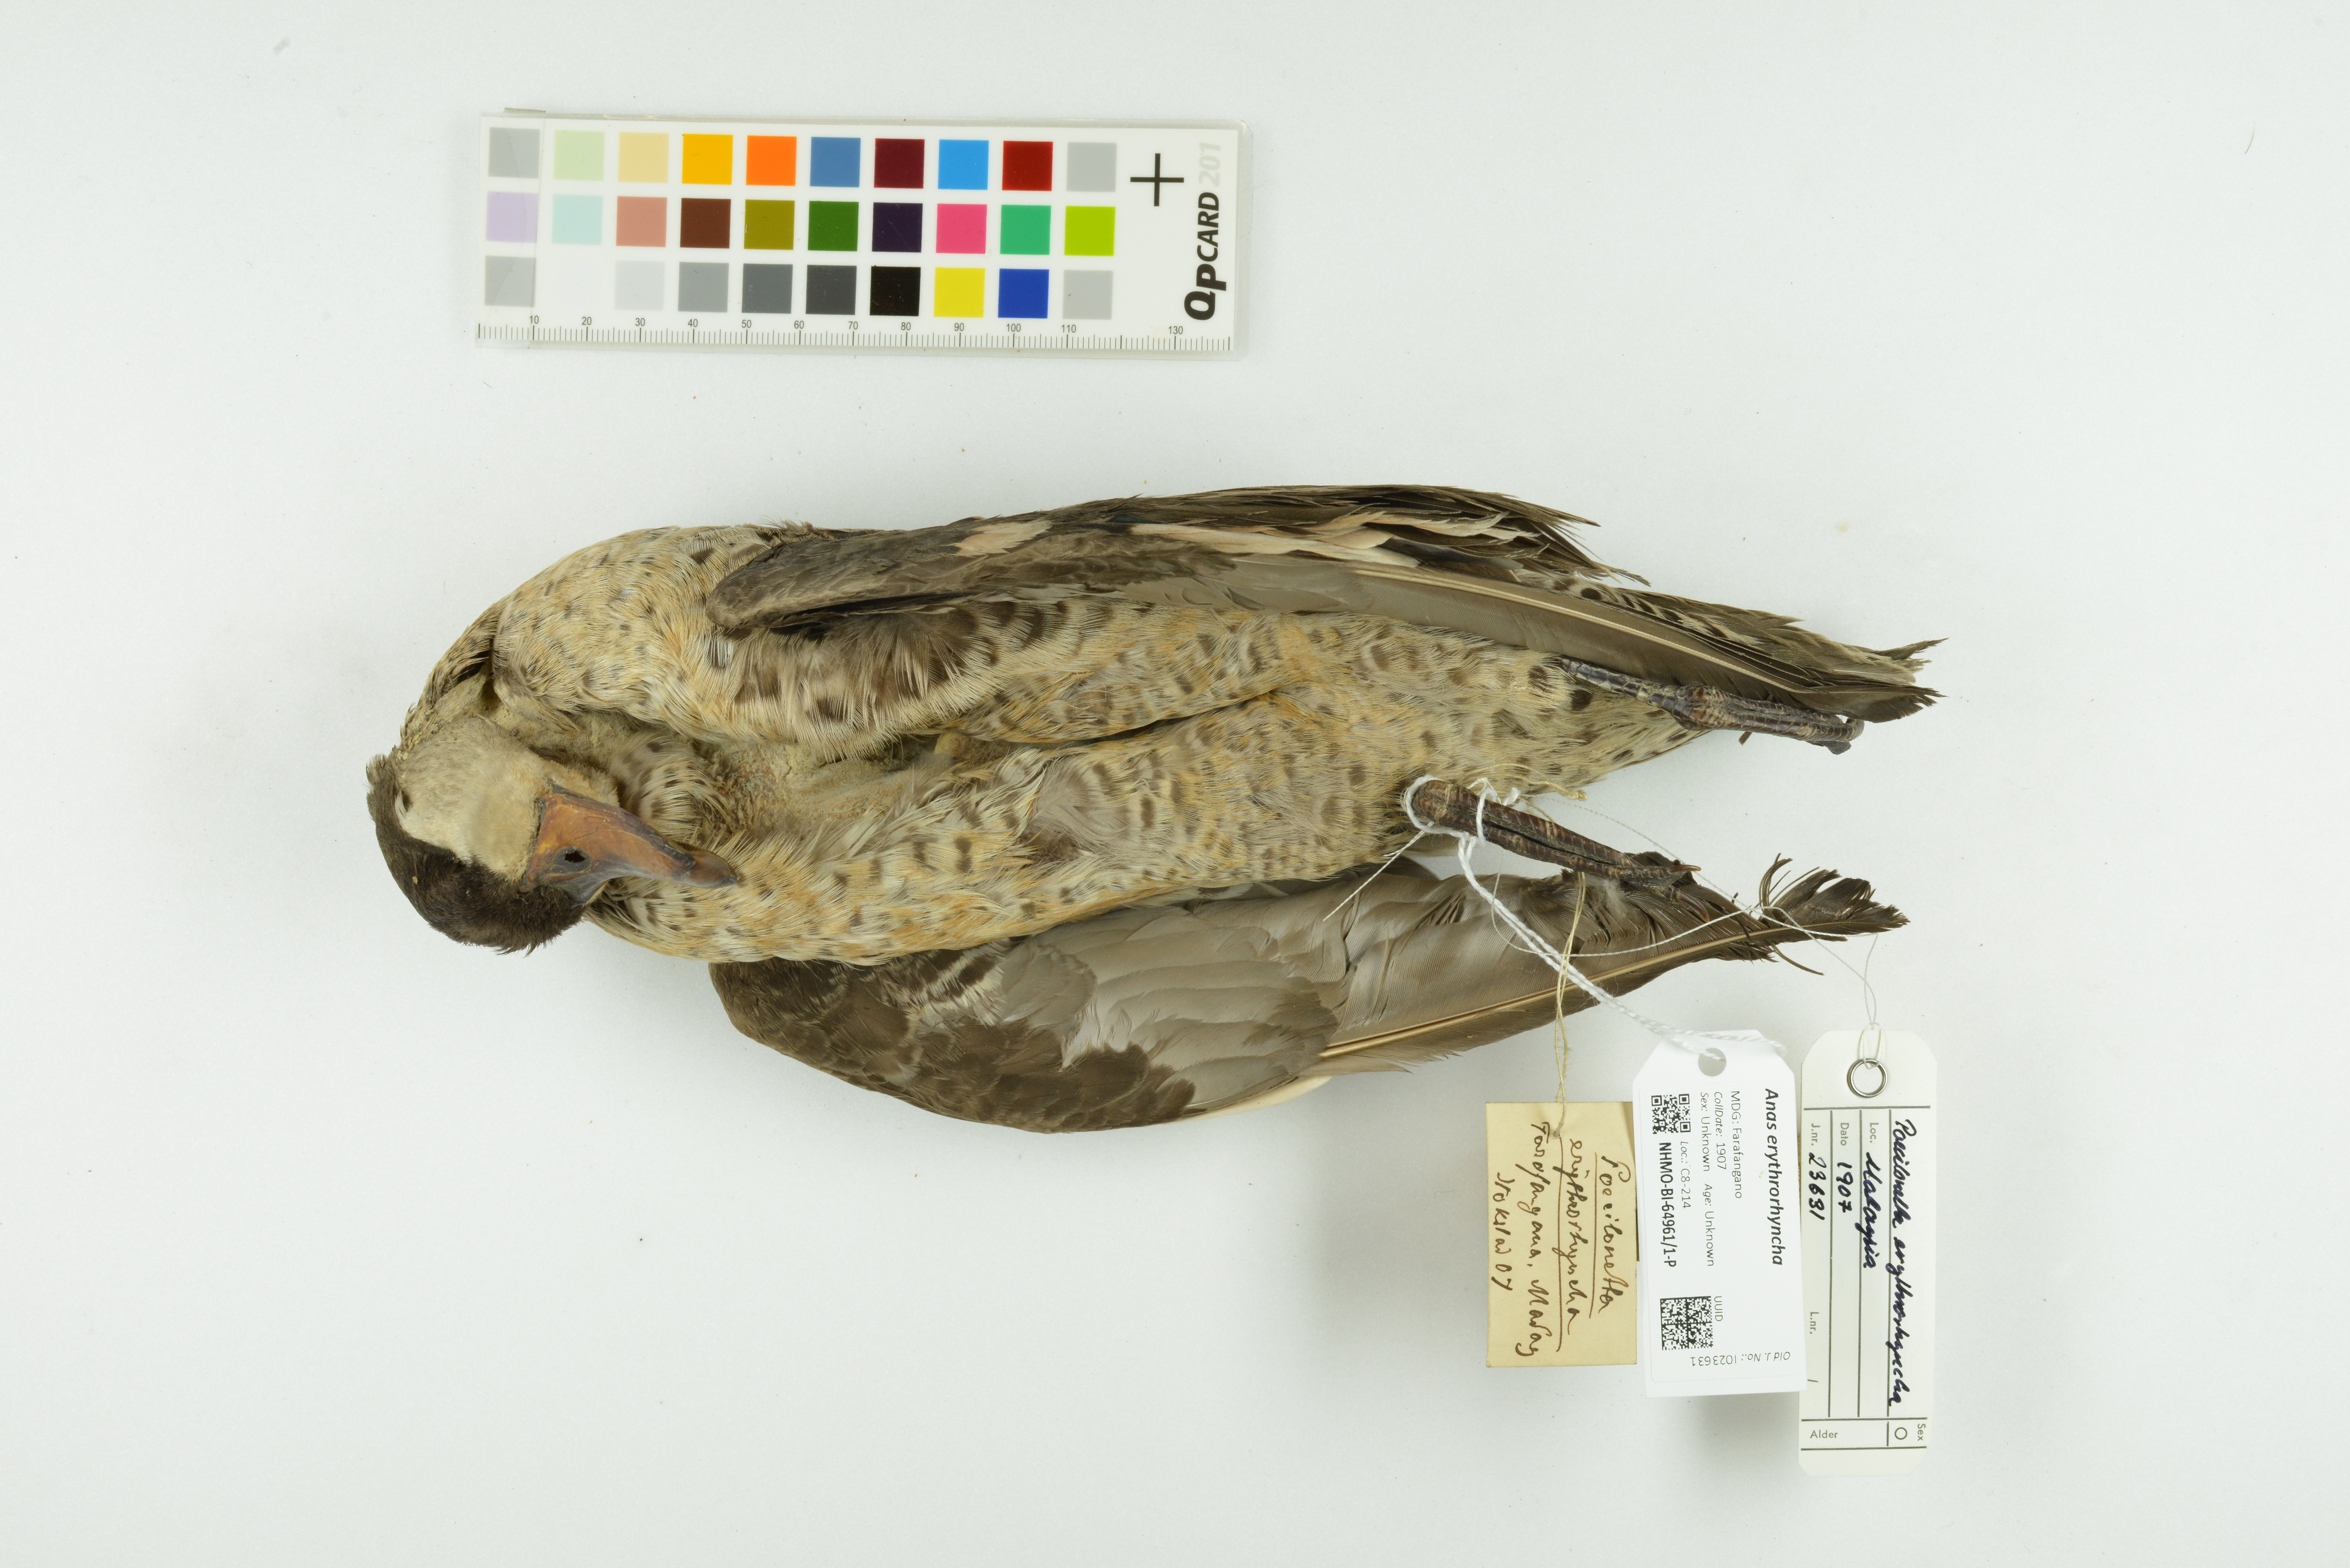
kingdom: Animalia
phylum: Chordata
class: Aves
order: Anseriformes
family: Anatidae
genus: Anas
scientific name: Anas erythrorhyncha
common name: Red-billed teal
